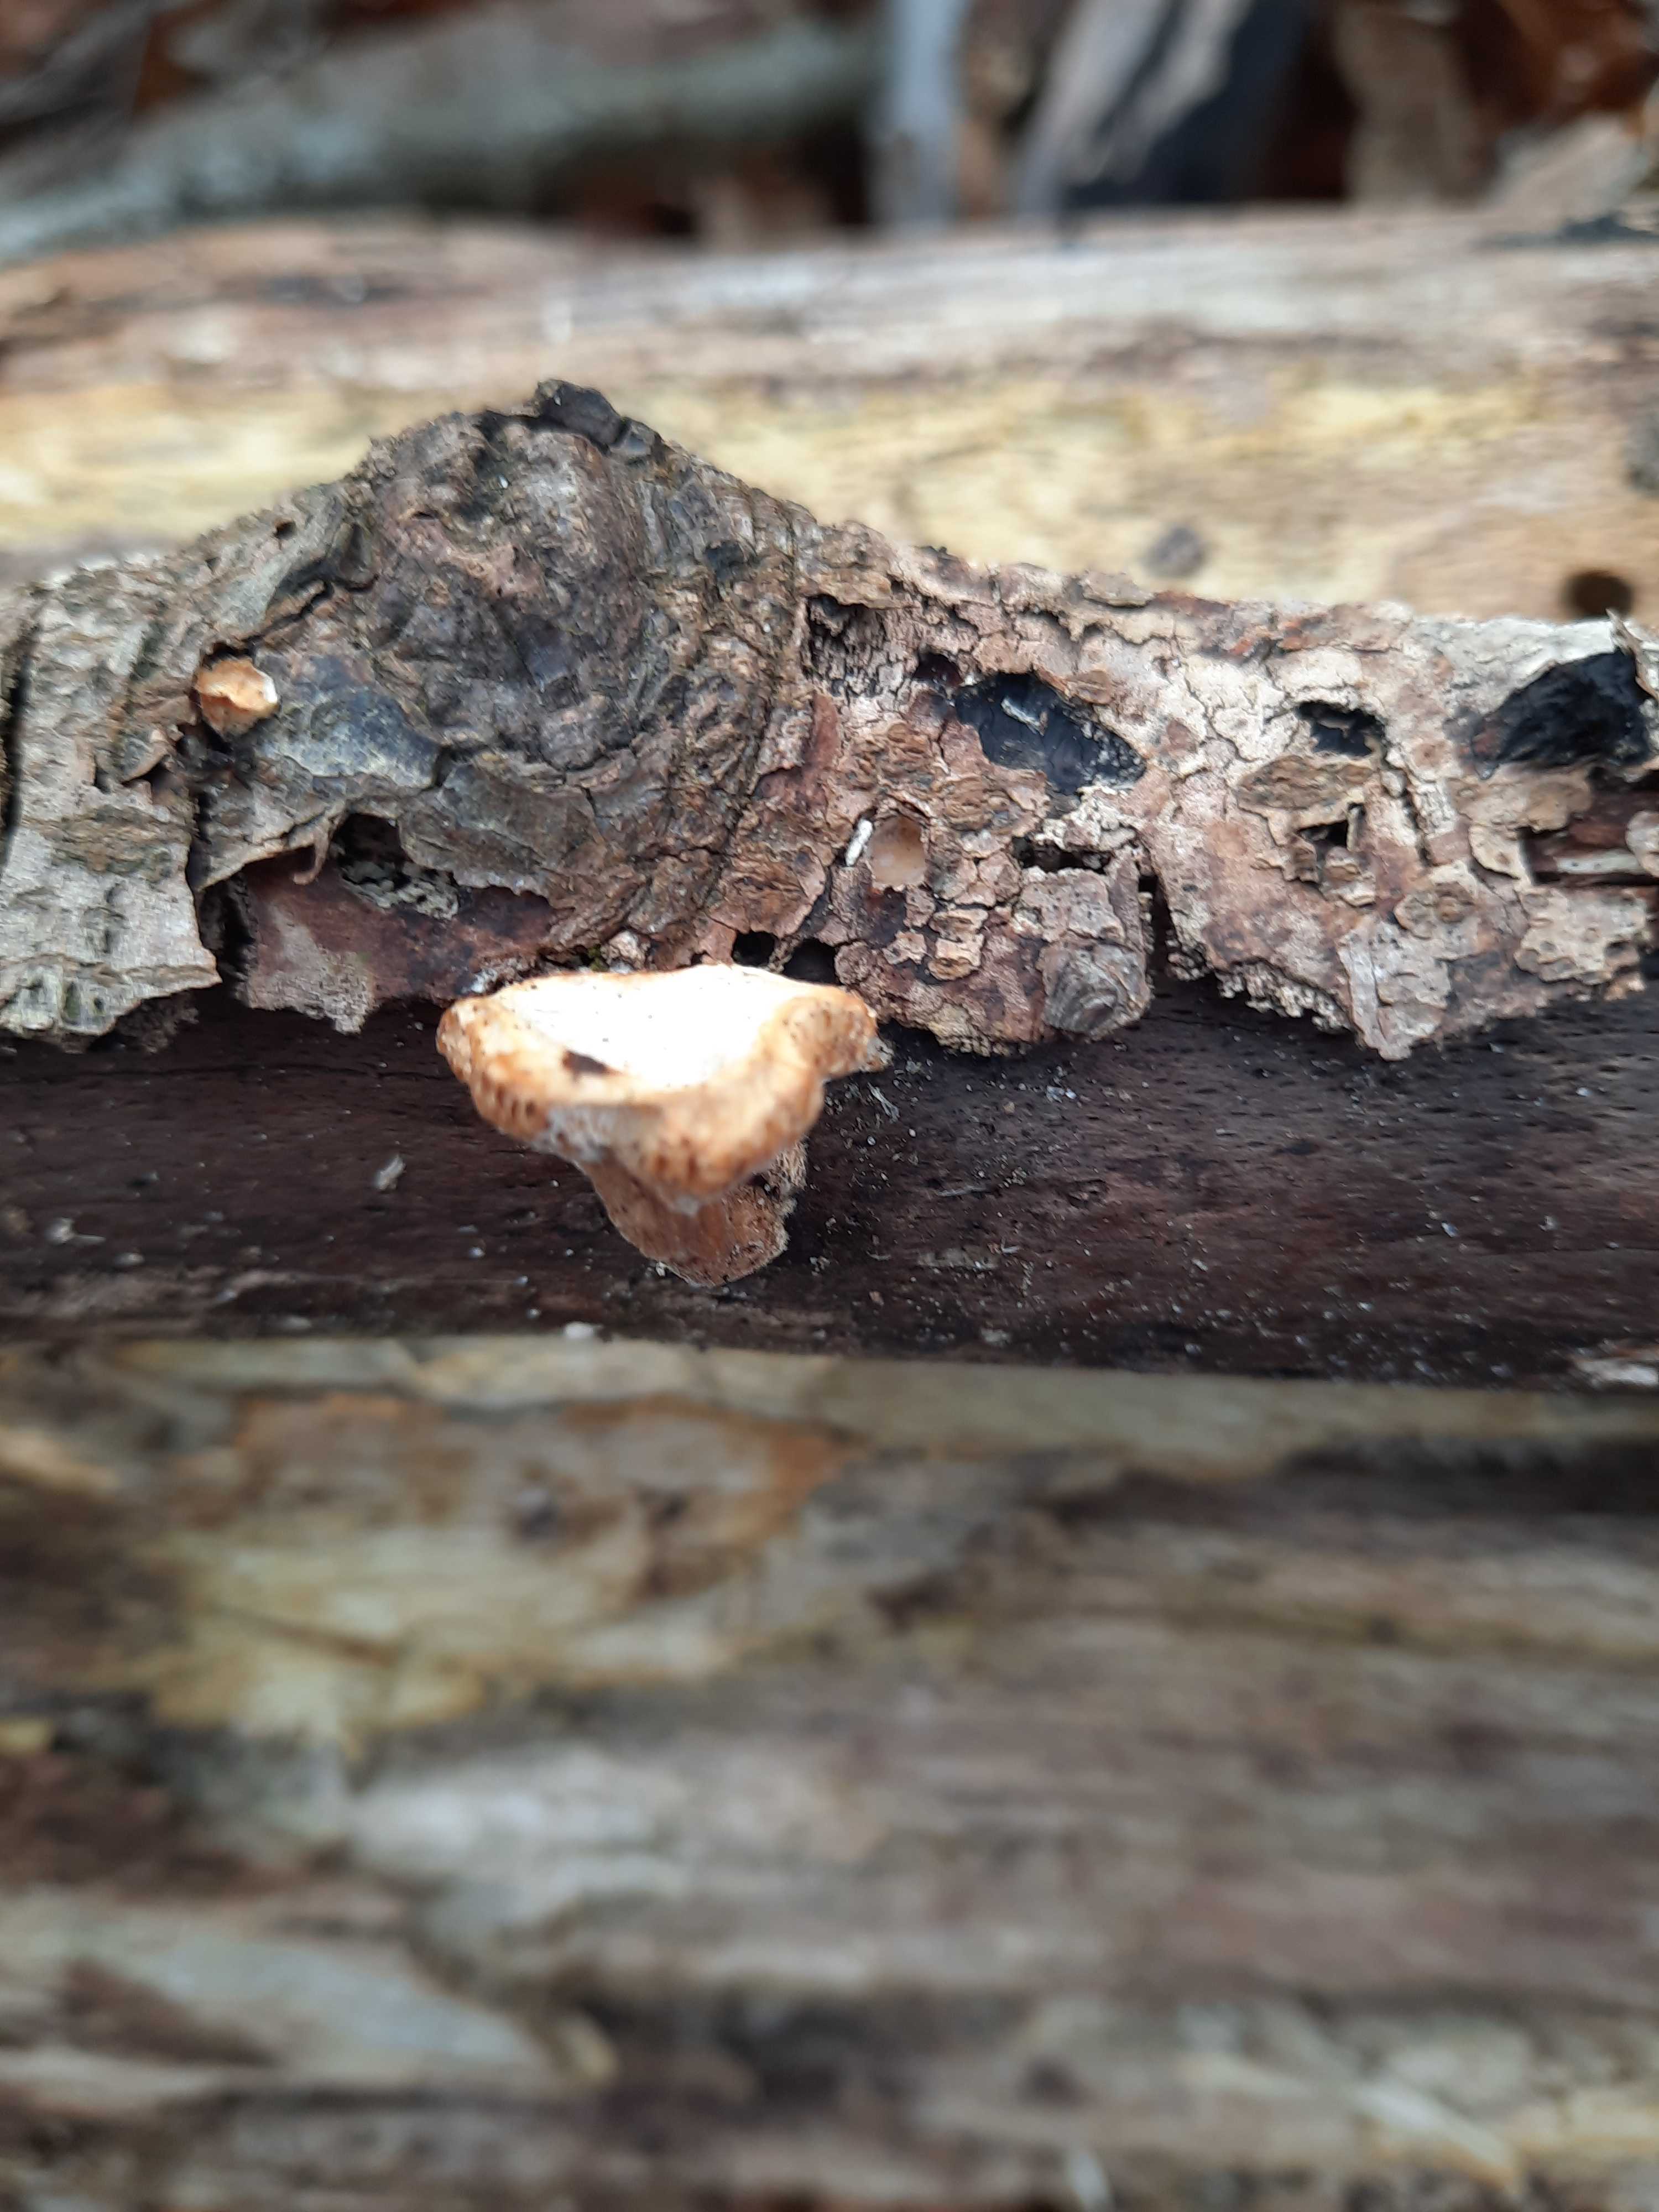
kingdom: Fungi
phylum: Basidiomycota
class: Agaricomycetes
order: Polyporales
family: Polyporaceae
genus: Lentinus
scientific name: Lentinus brumalis
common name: vinter-stilkporesvamp
